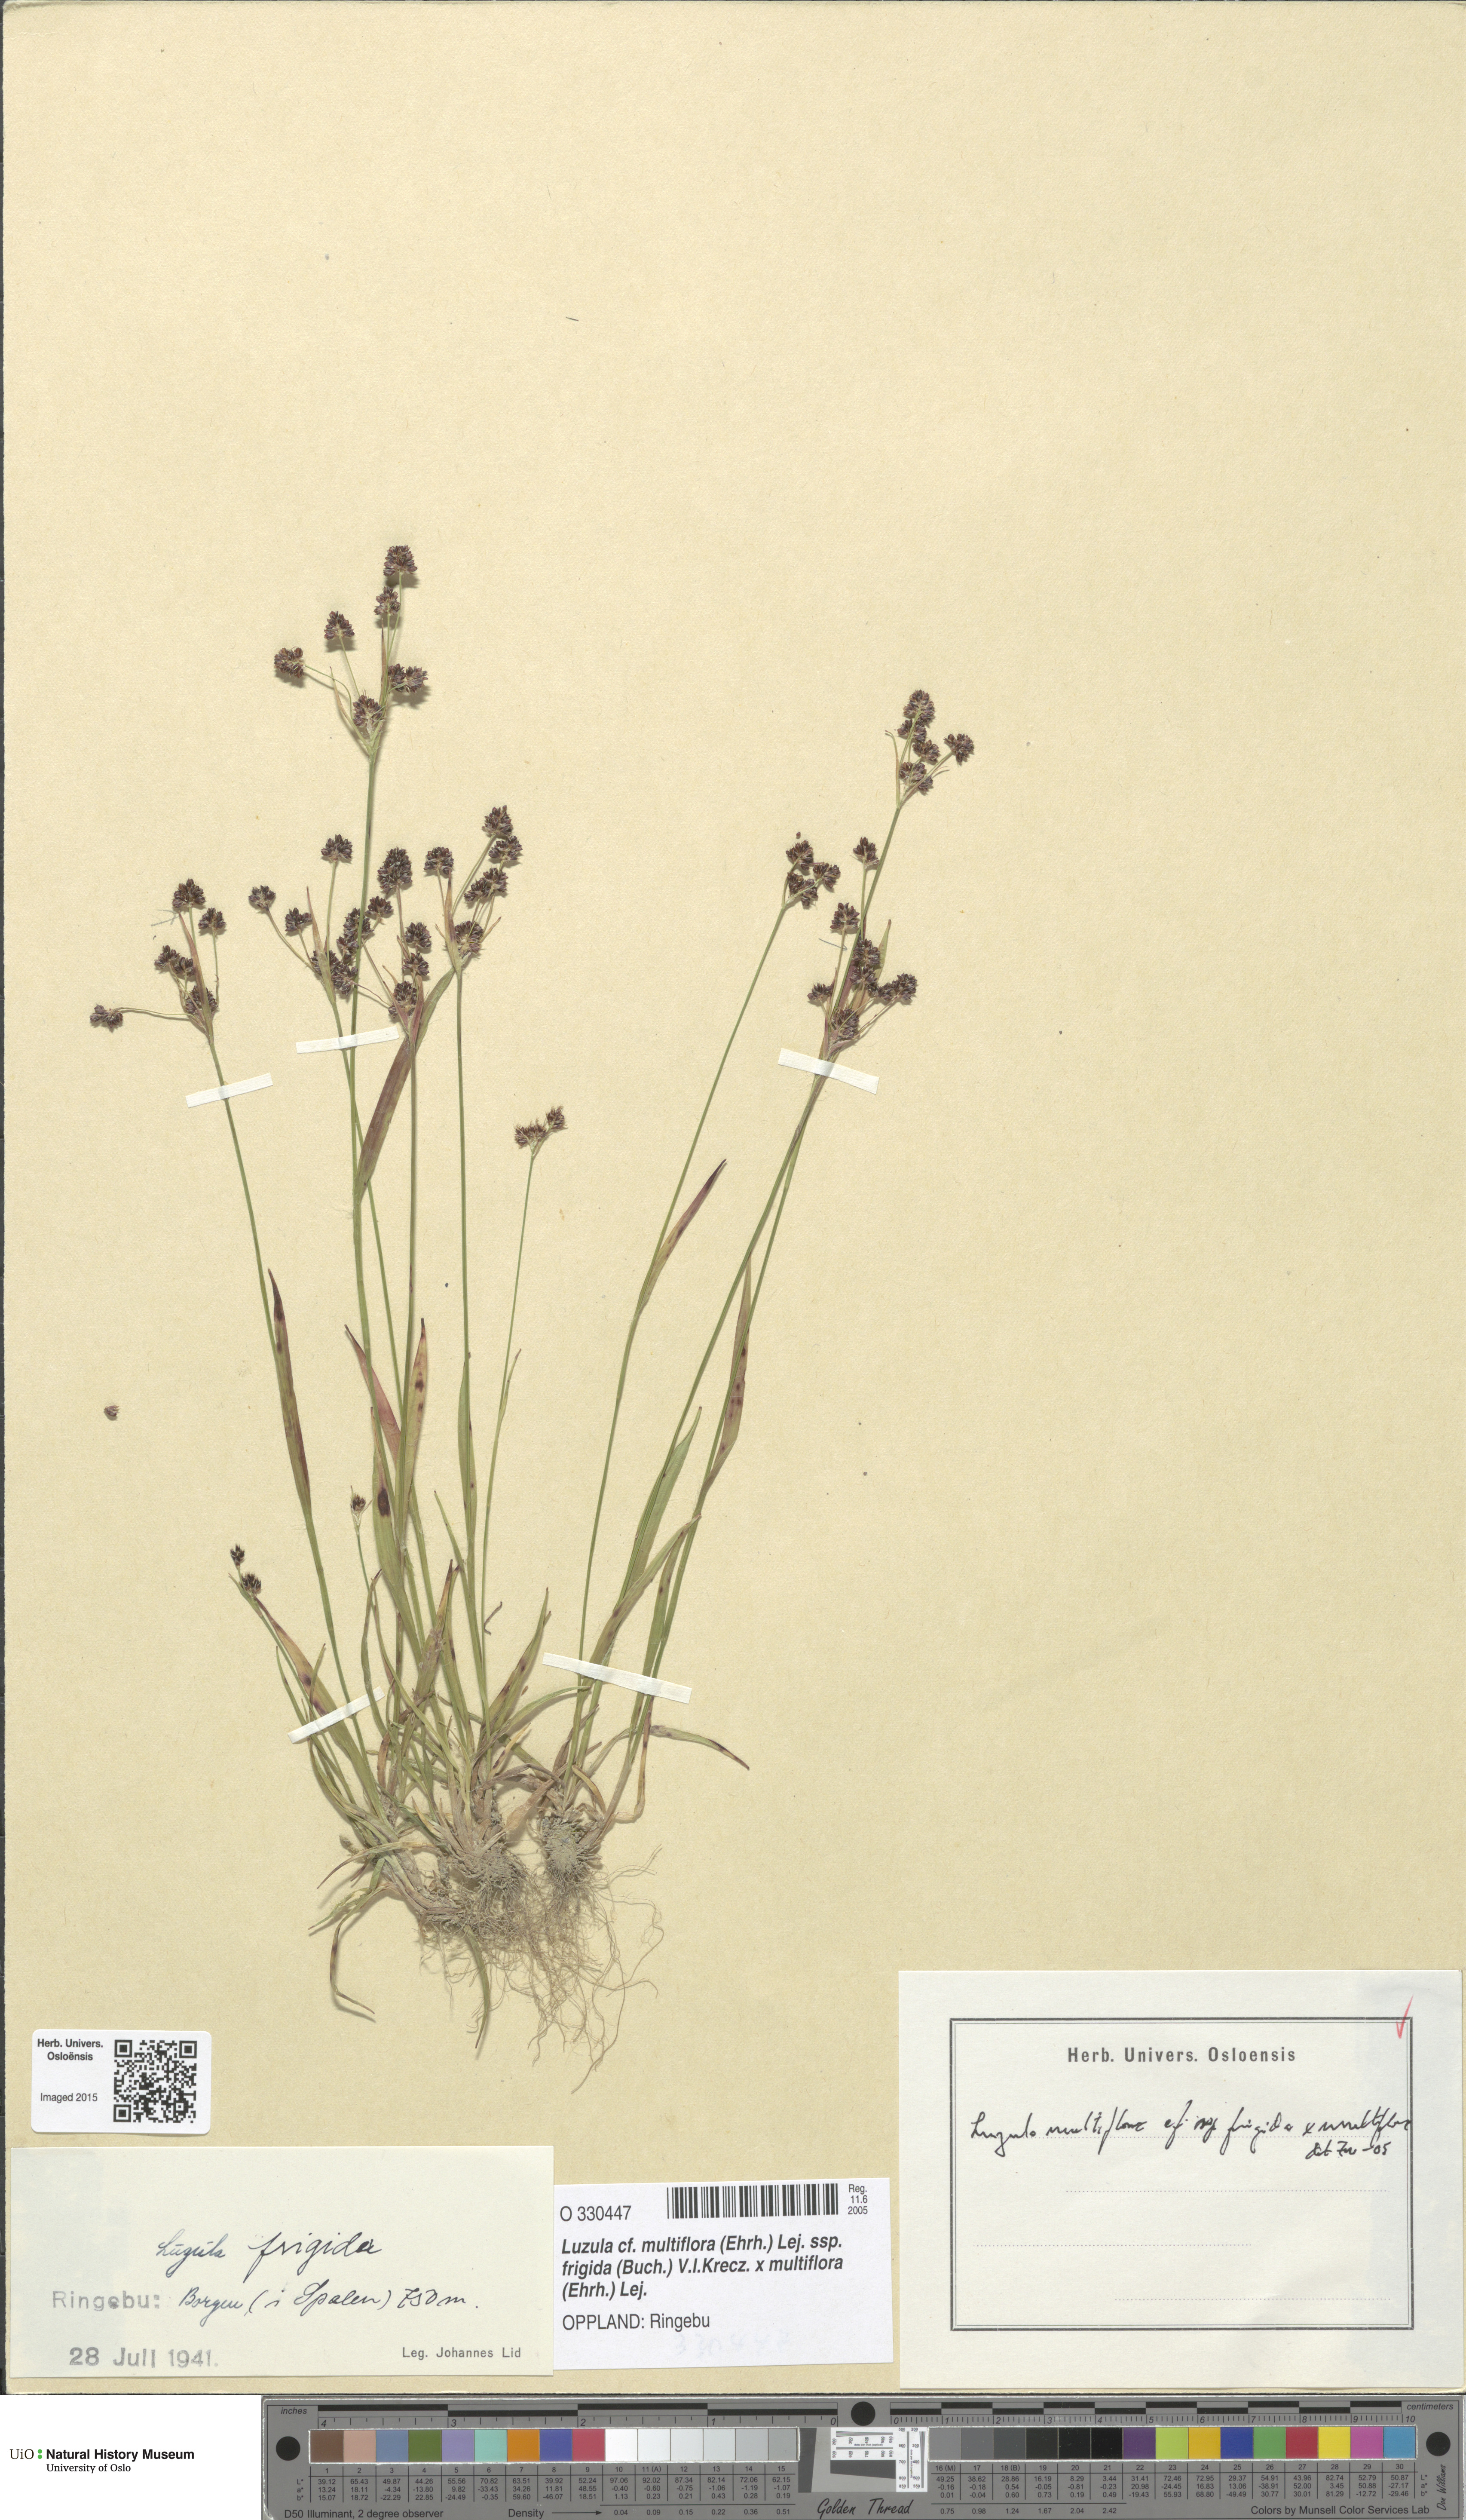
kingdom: Plantae
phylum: Tracheophyta
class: Liliopsida
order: Poales
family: Juncaceae
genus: Luzula
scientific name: Luzula
